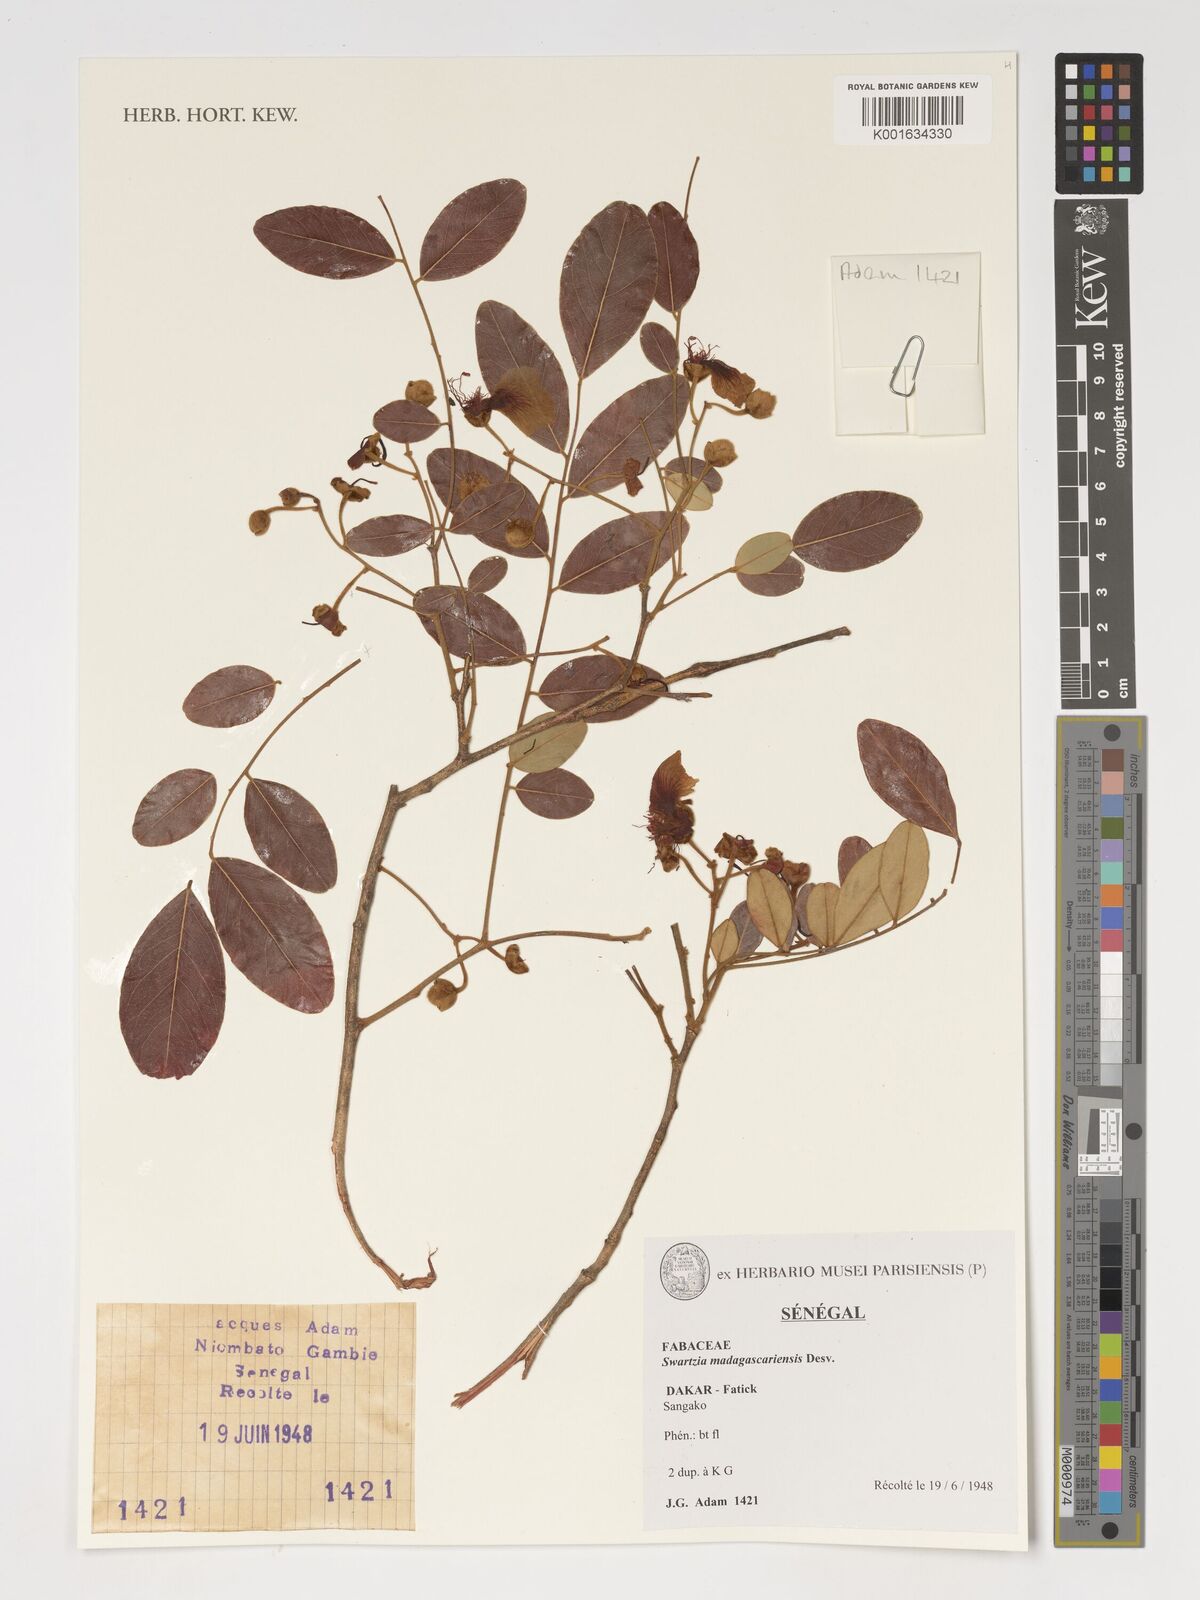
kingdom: Plantae
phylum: Tracheophyta
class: Magnoliopsida
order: Fabales
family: Fabaceae
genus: Bobgunnia
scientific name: Bobgunnia madagascariensis
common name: Snake bean plant
